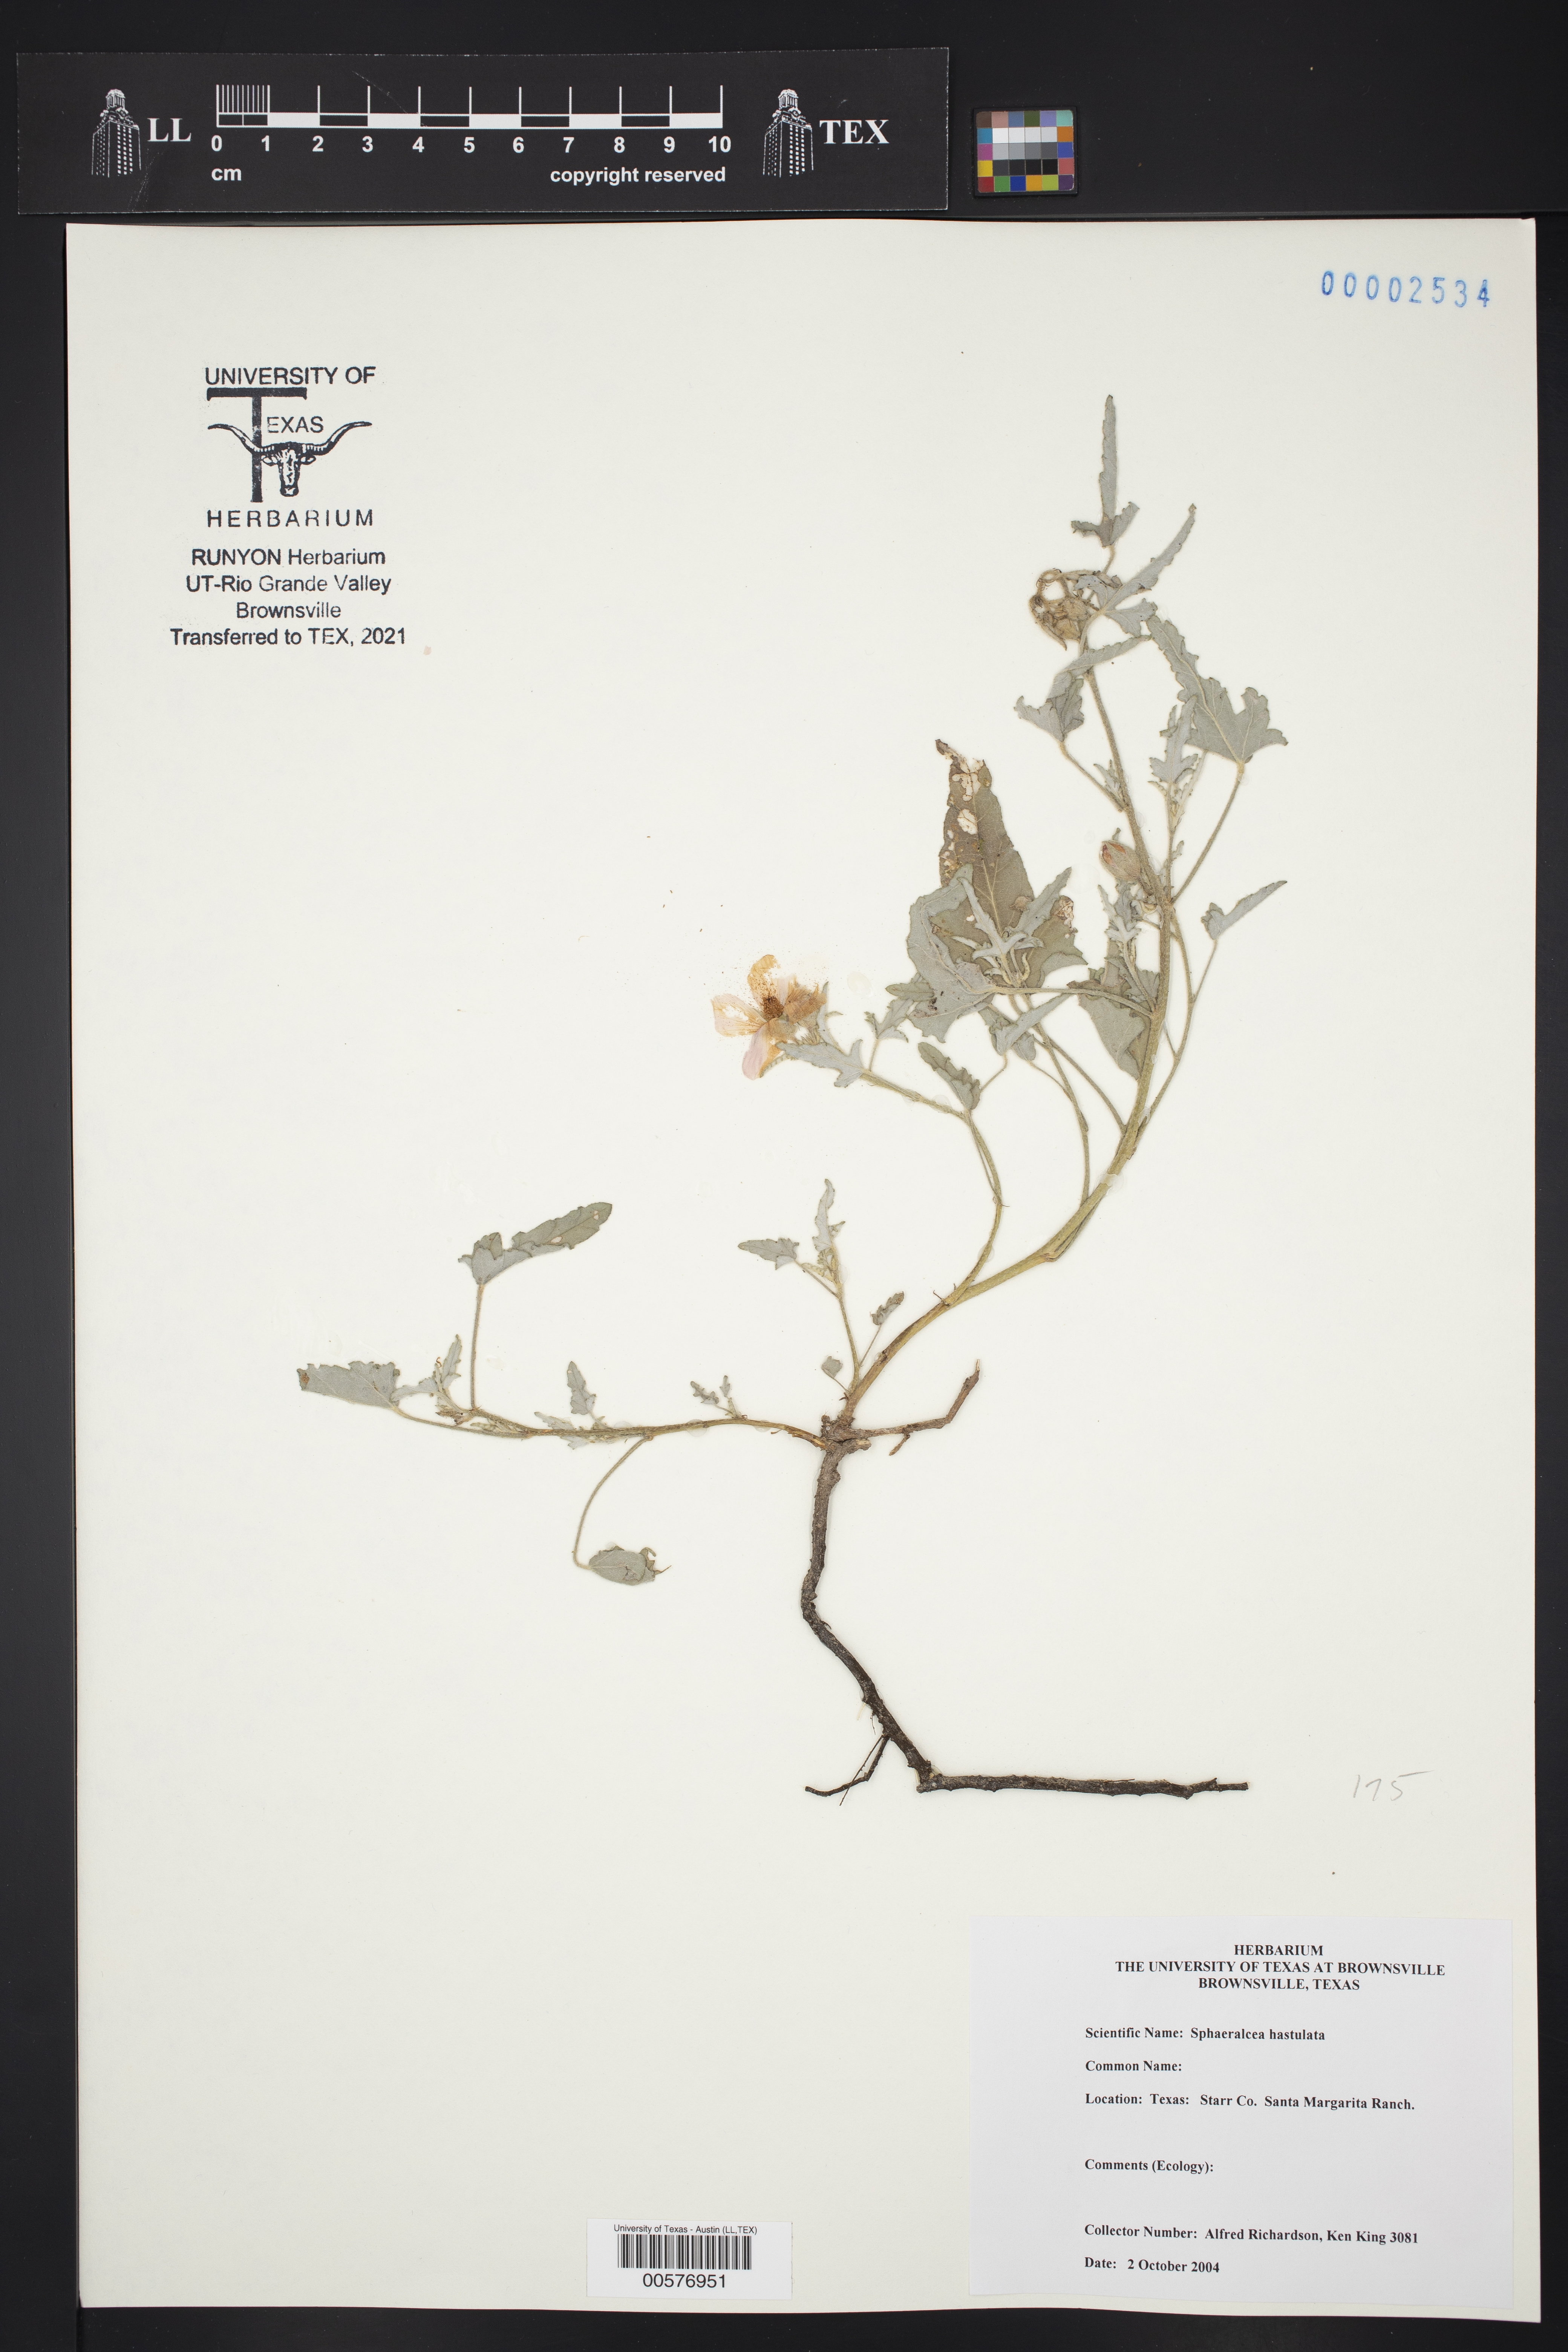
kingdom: Plantae
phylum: Tracheophyta
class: Magnoliopsida
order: Malvales
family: Malvaceae
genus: Sphaeralcea
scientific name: Sphaeralcea hastulata
